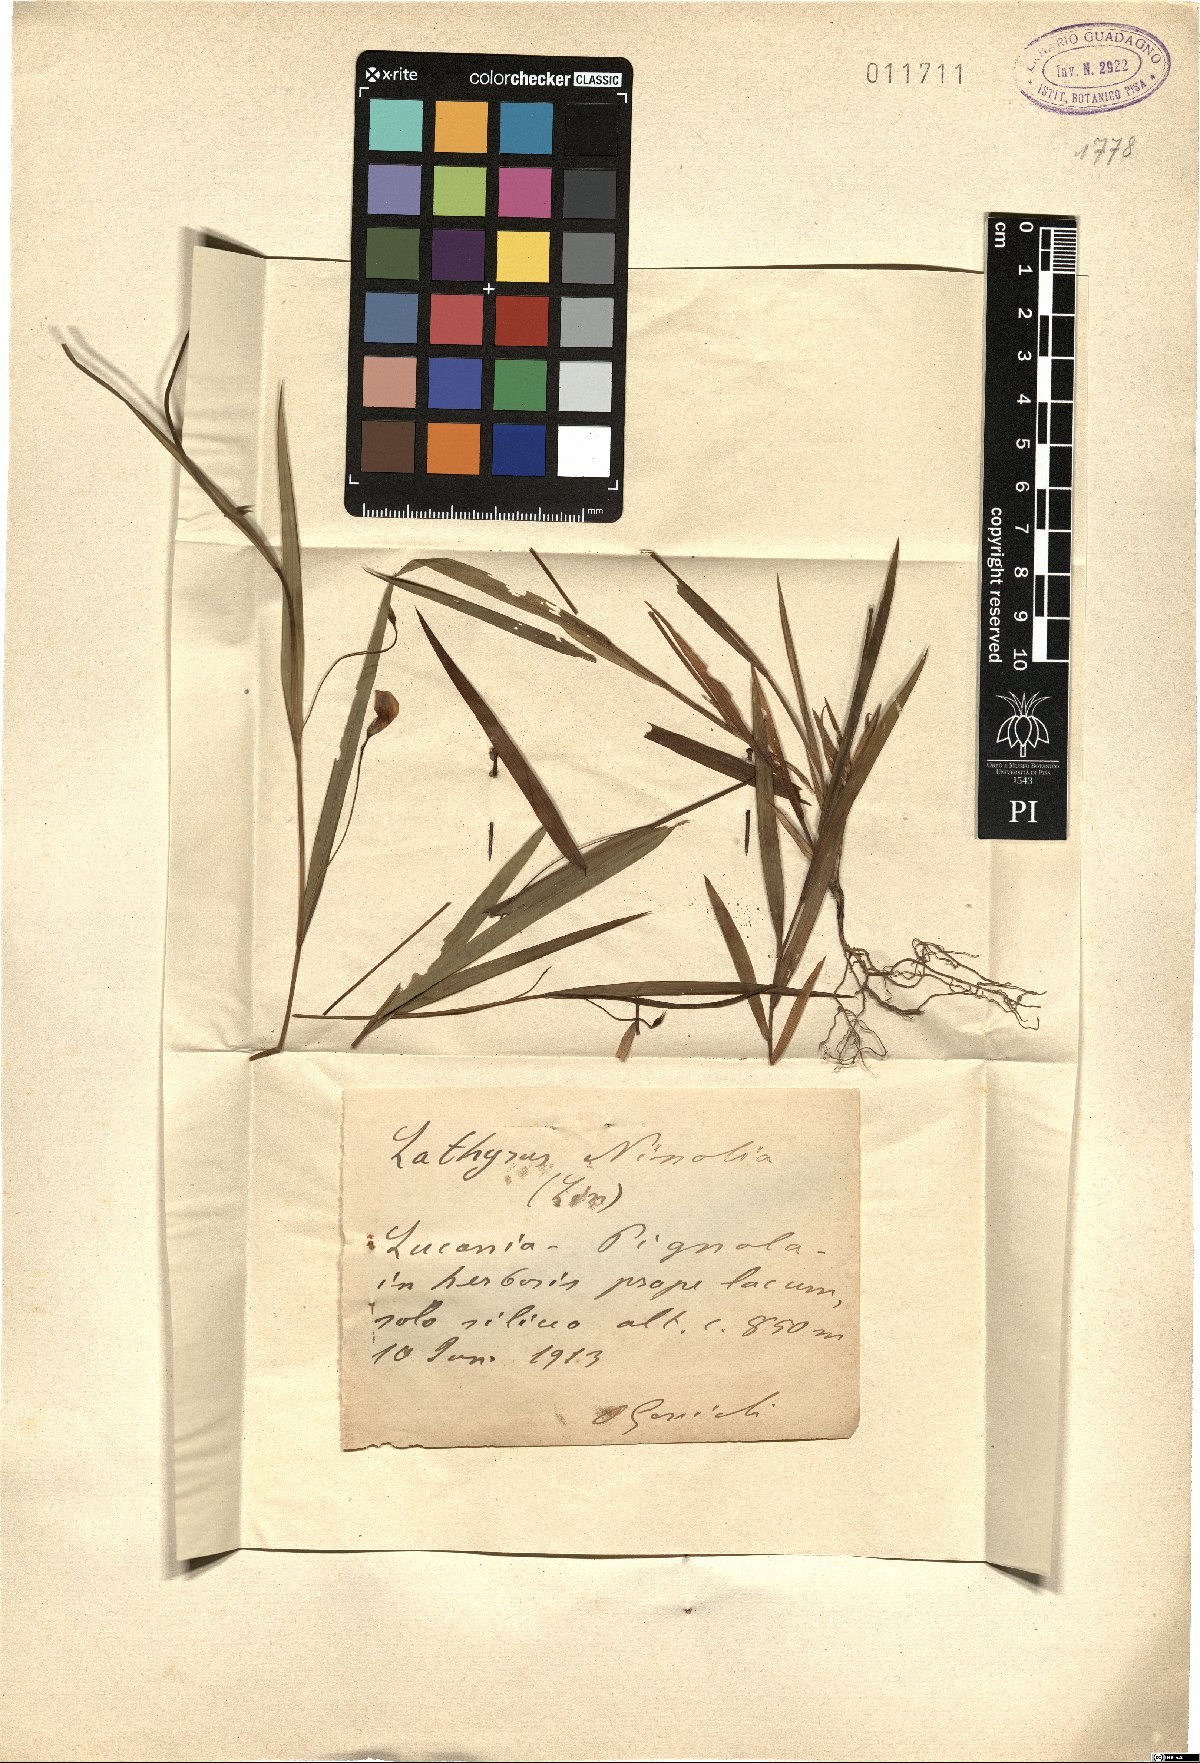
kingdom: Plantae
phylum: Tracheophyta
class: Magnoliopsida
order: Fabales
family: Fabaceae
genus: Lathyrus
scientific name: Lathyrus nissolia
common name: Grass vetchling
